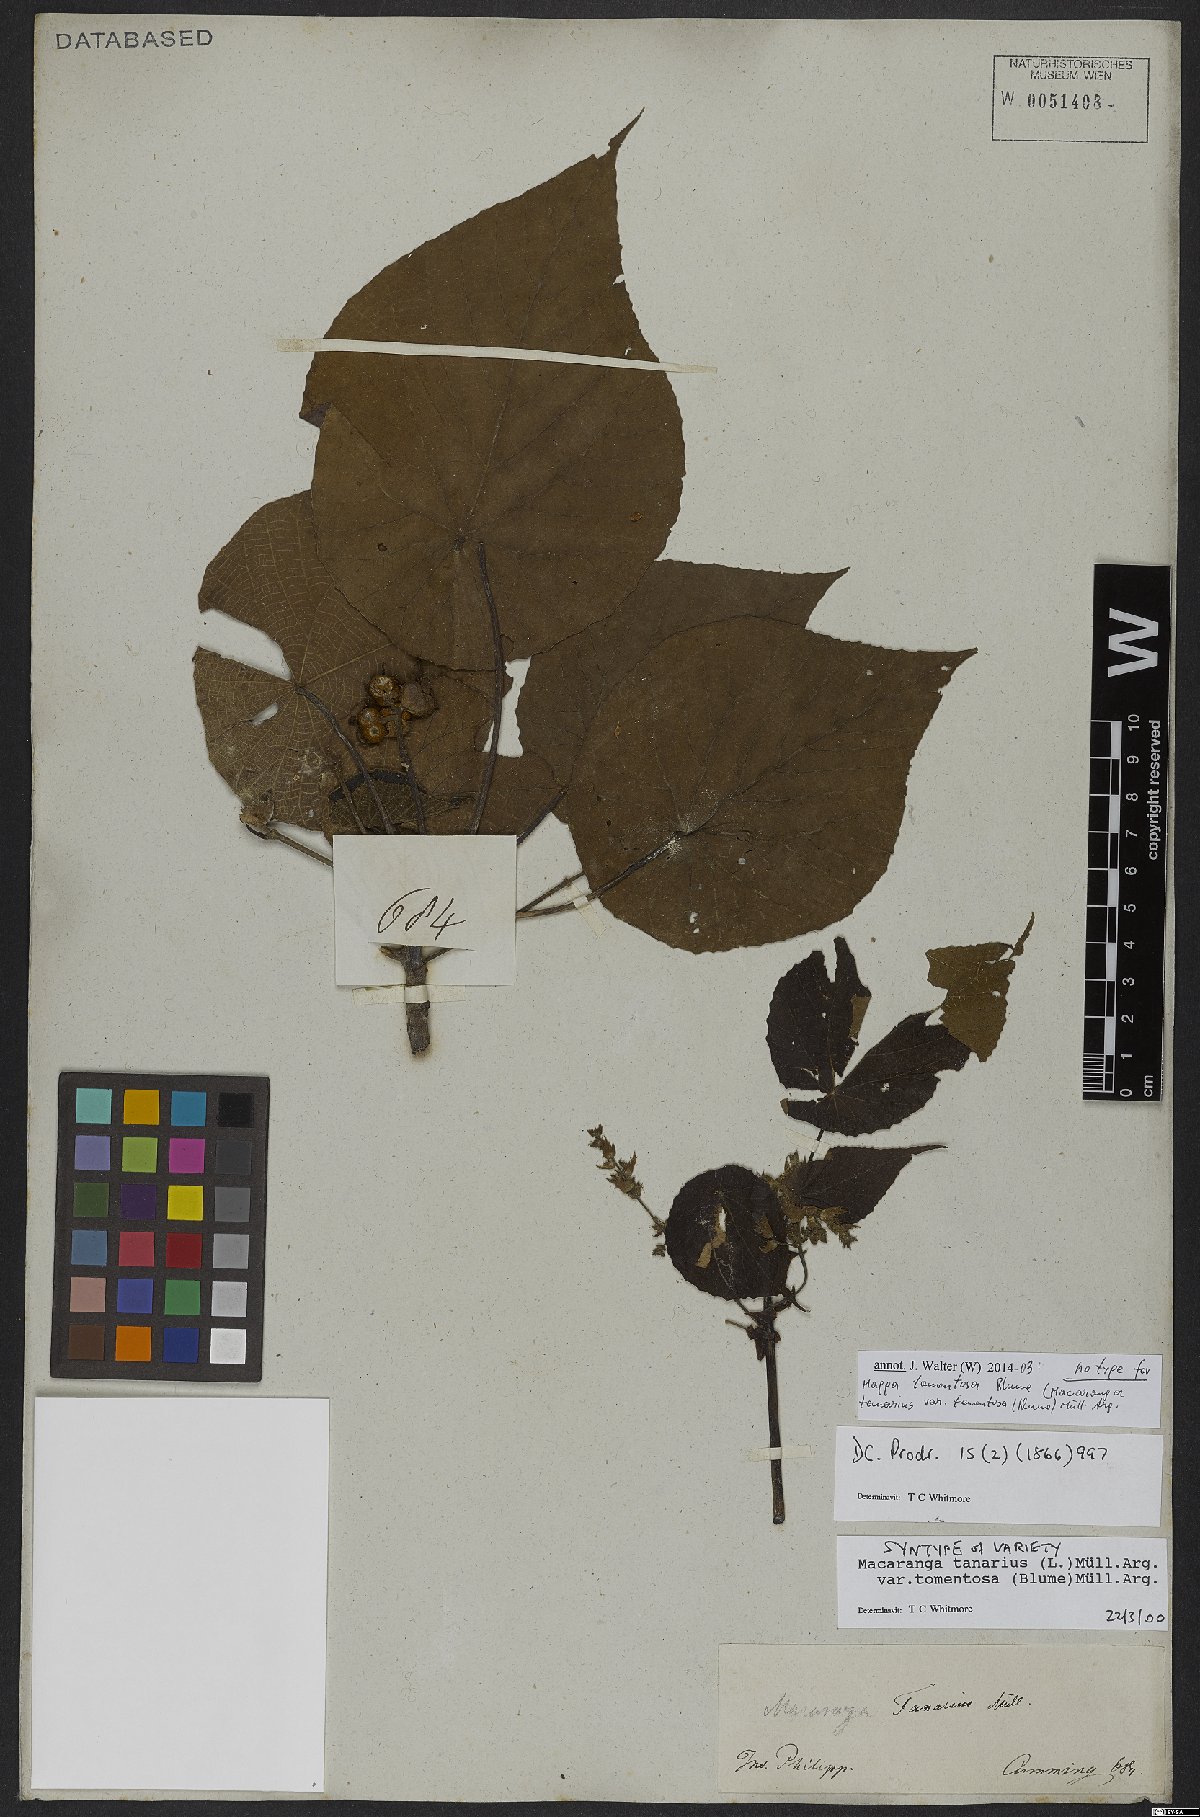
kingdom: Plantae
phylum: Tracheophyta
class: Magnoliopsida
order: Malpighiales
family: Euphorbiaceae
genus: Macaranga
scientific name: Macaranga tanarius
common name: Parasol leaf tree
